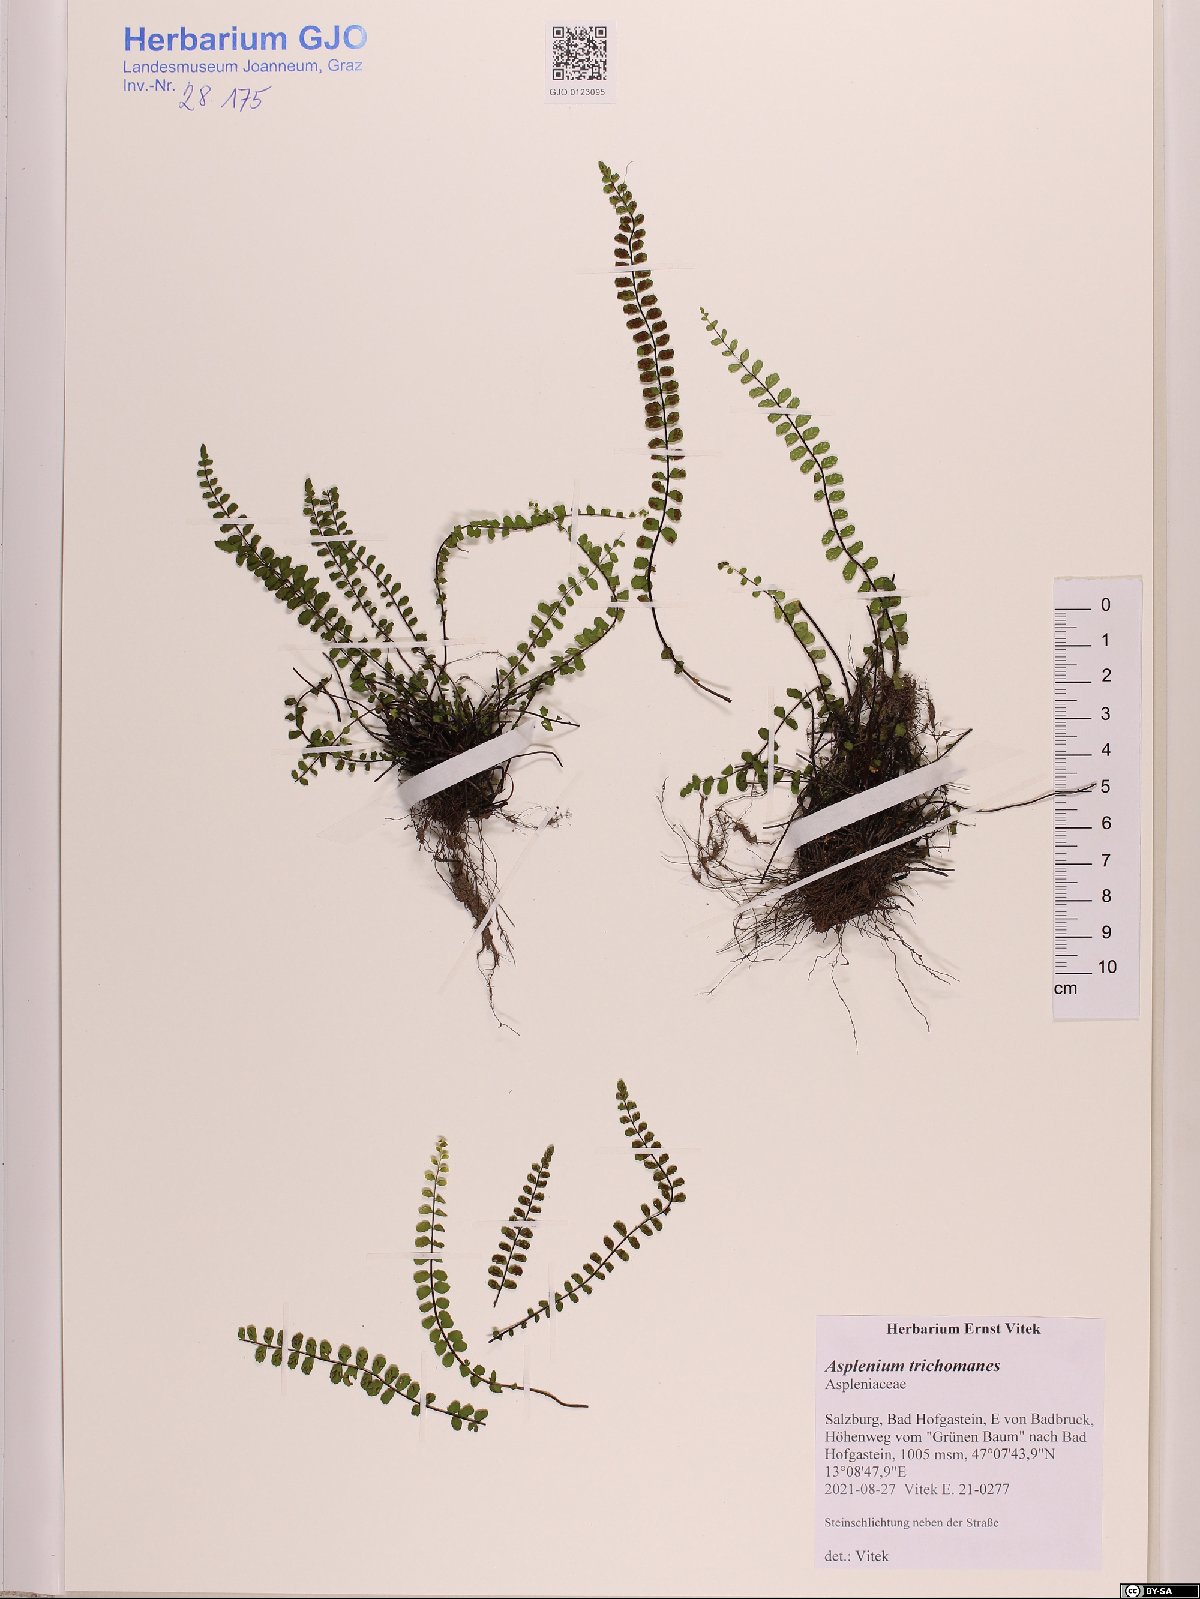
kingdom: Plantae
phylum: Tracheophyta
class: Polypodiopsida
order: Polypodiales
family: Aspleniaceae
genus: Asplenium
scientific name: Asplenium trichomanes
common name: Maidenhair spleenwort
